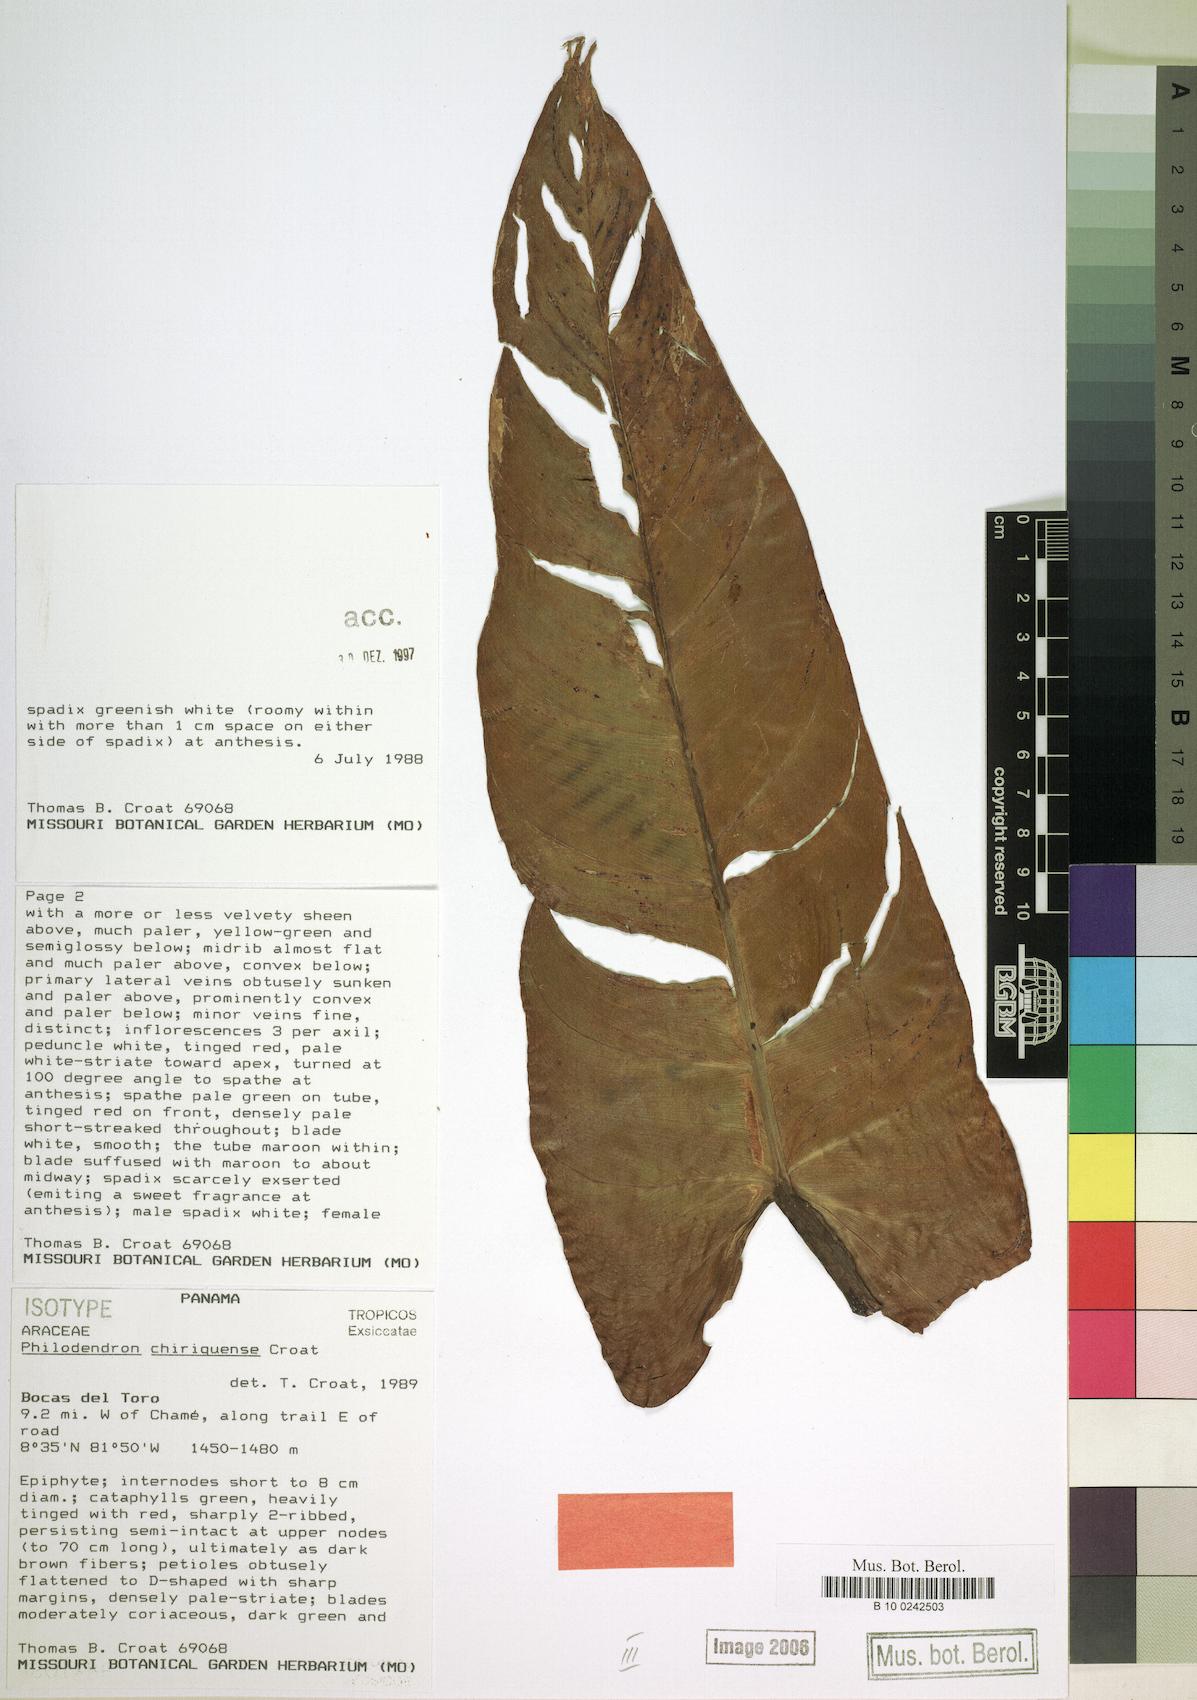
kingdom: Plantae
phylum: Tracheophyta
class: Liliopsida
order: Alismatales
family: Araceae
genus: Philodendron
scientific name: Philodendron chiriquense
